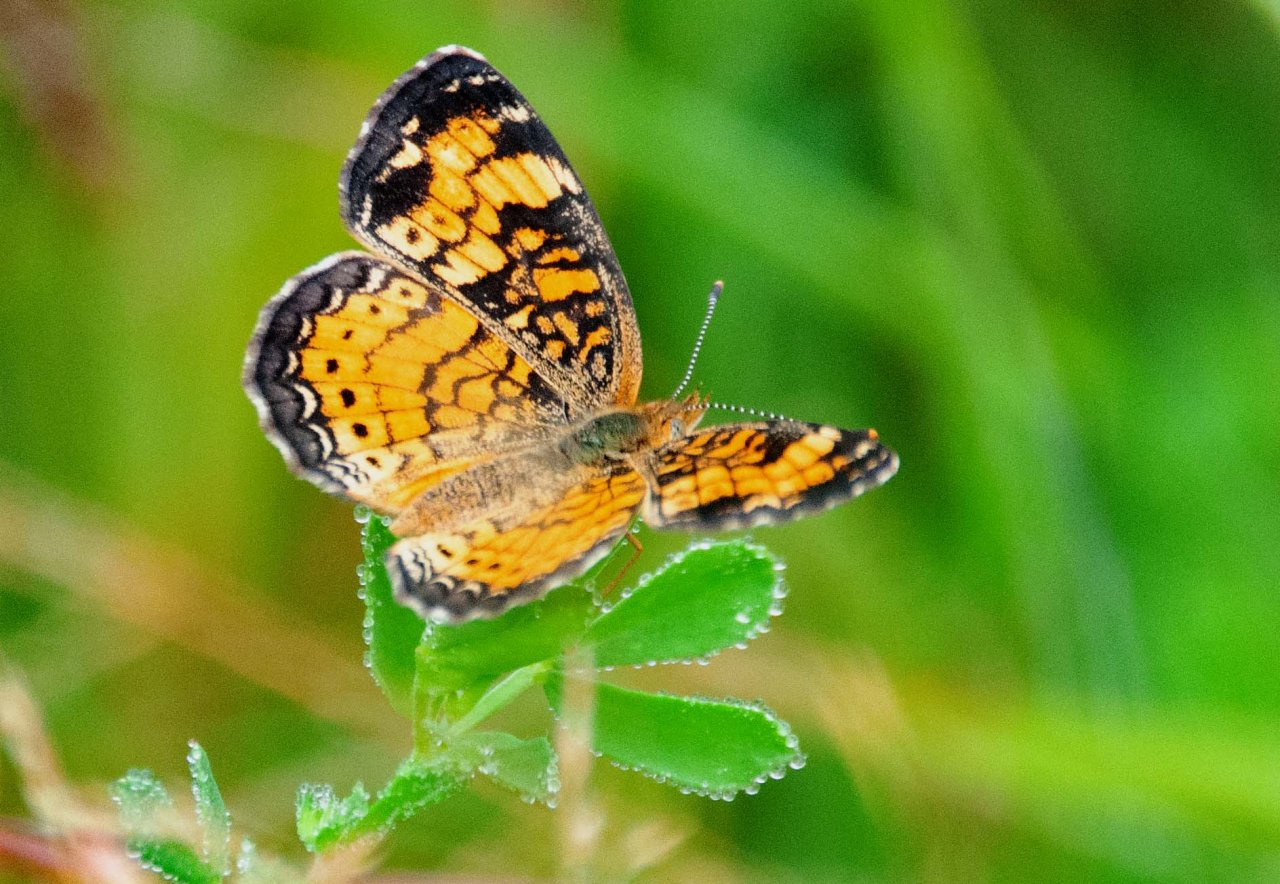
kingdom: Animalia
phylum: Arthropoda
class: Insecta
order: Lepidoptera
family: Nymphalidae
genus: Phyciodes
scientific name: Phyciodes tharos
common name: Pearl Crescent
